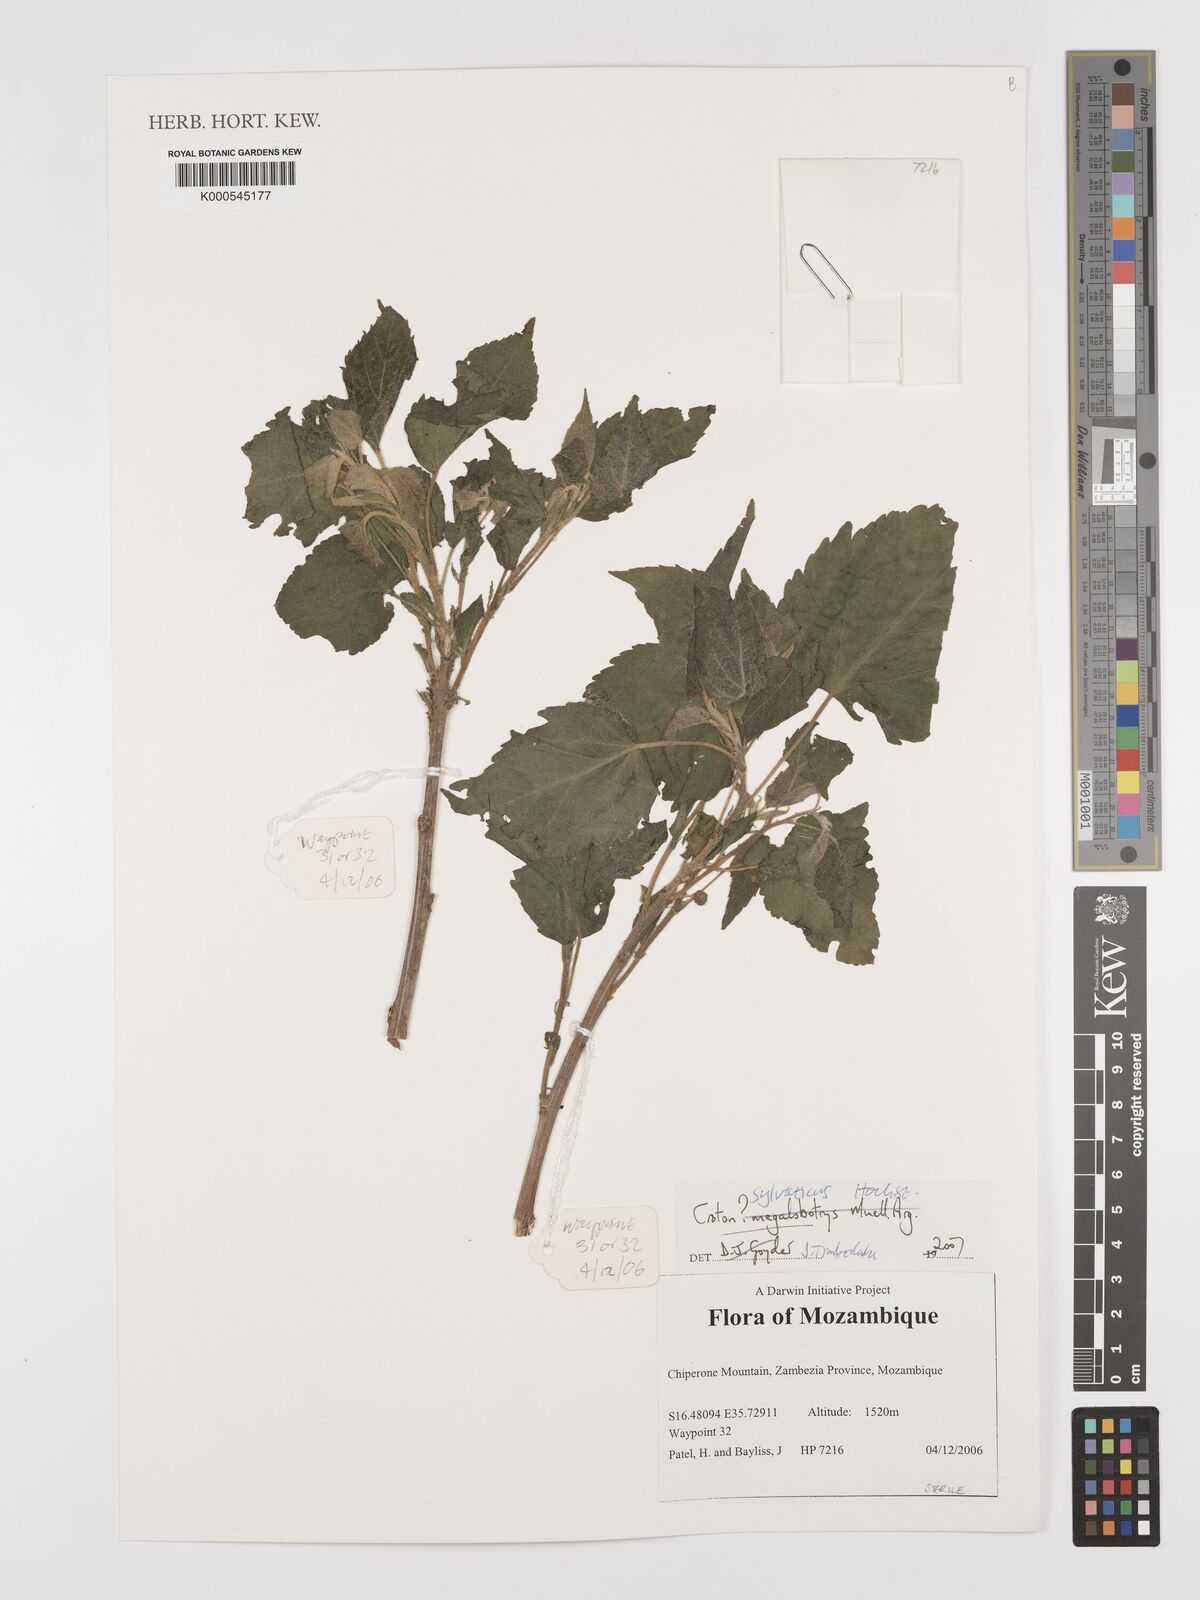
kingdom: Plantae
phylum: Tracheophyta
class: Magnoliopsida
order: Malpighiales
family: Euphorbiaceae
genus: Croton
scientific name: Croton sylvaticus
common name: Forest croton
